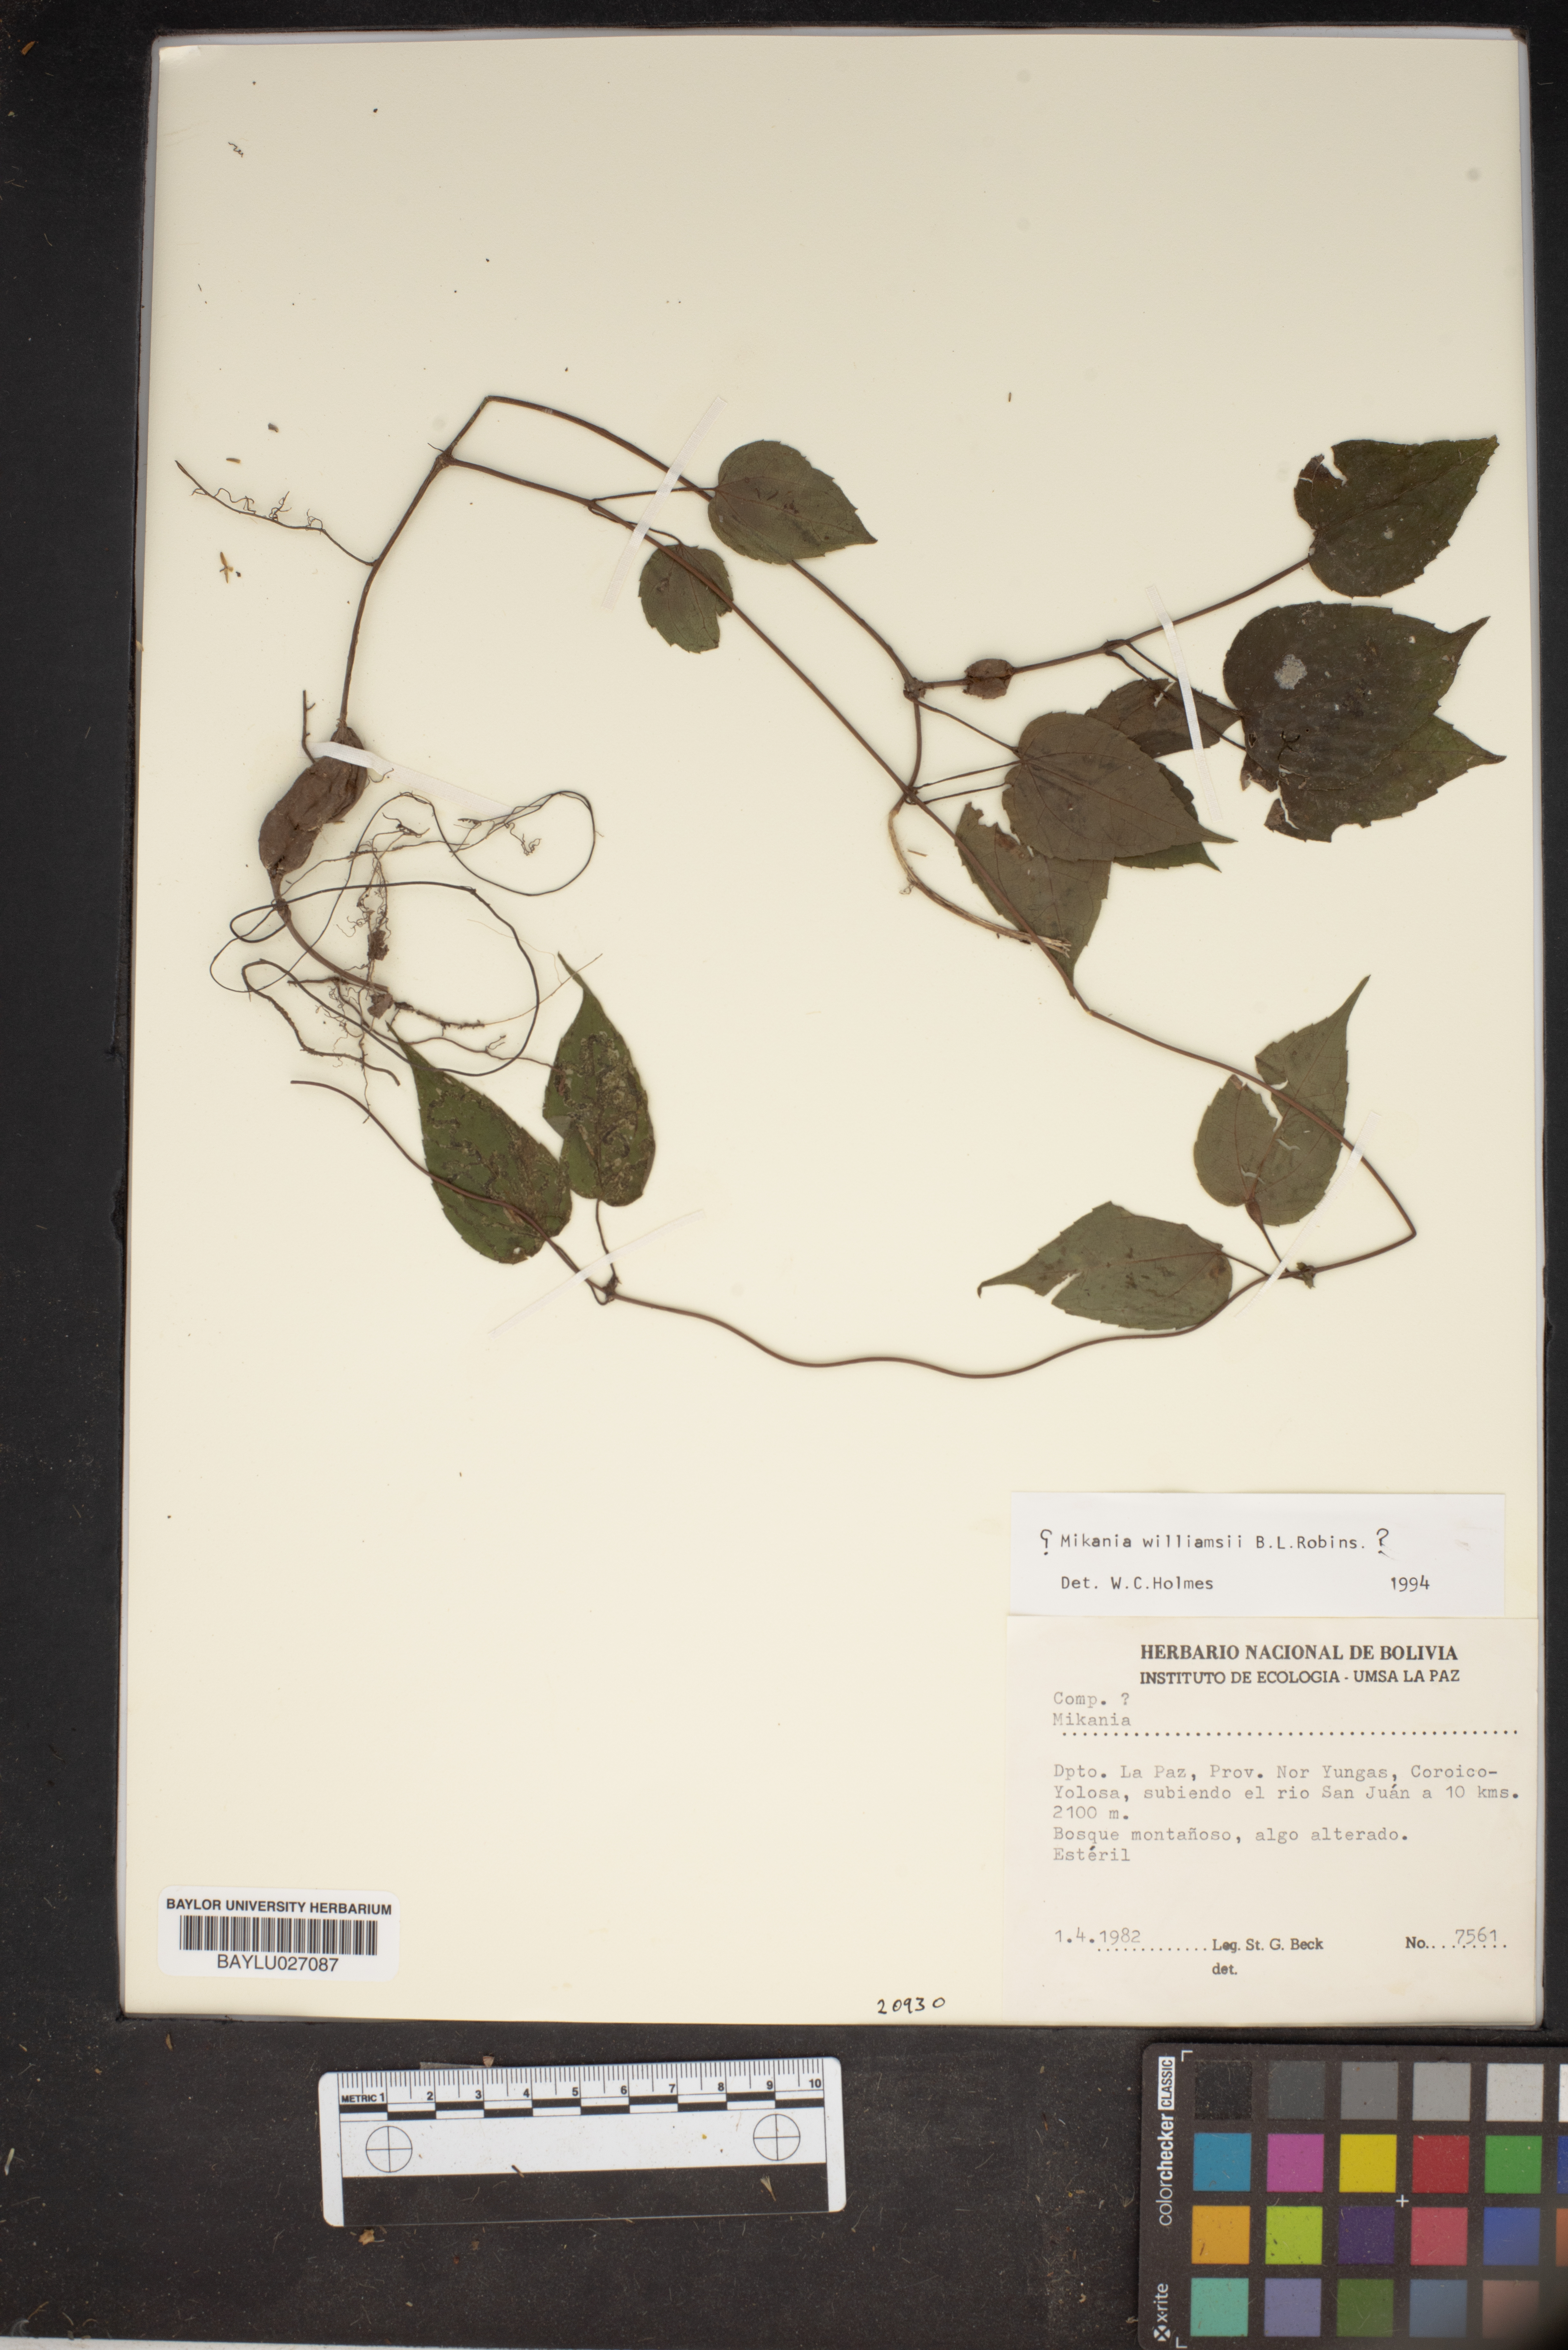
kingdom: Plantae
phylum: Tracheophyta
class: Magnoliopsida
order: Asterales
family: Asteraceae
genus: Mikania
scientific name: Mikania williamsii
